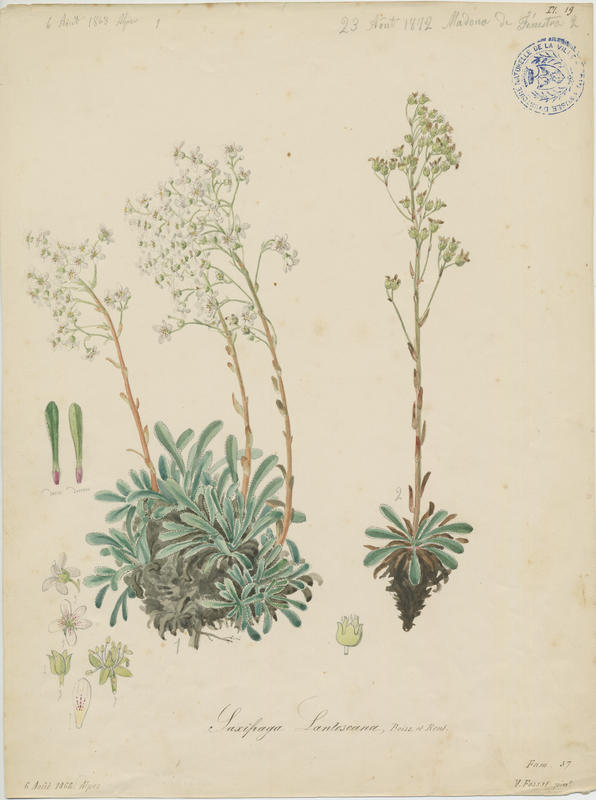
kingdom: Plantae
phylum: Tracheophyta
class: Magnoliopsida
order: Saxifragales
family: Saxifragaceae
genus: Saxifraga
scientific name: Saxifraga catalaunica
